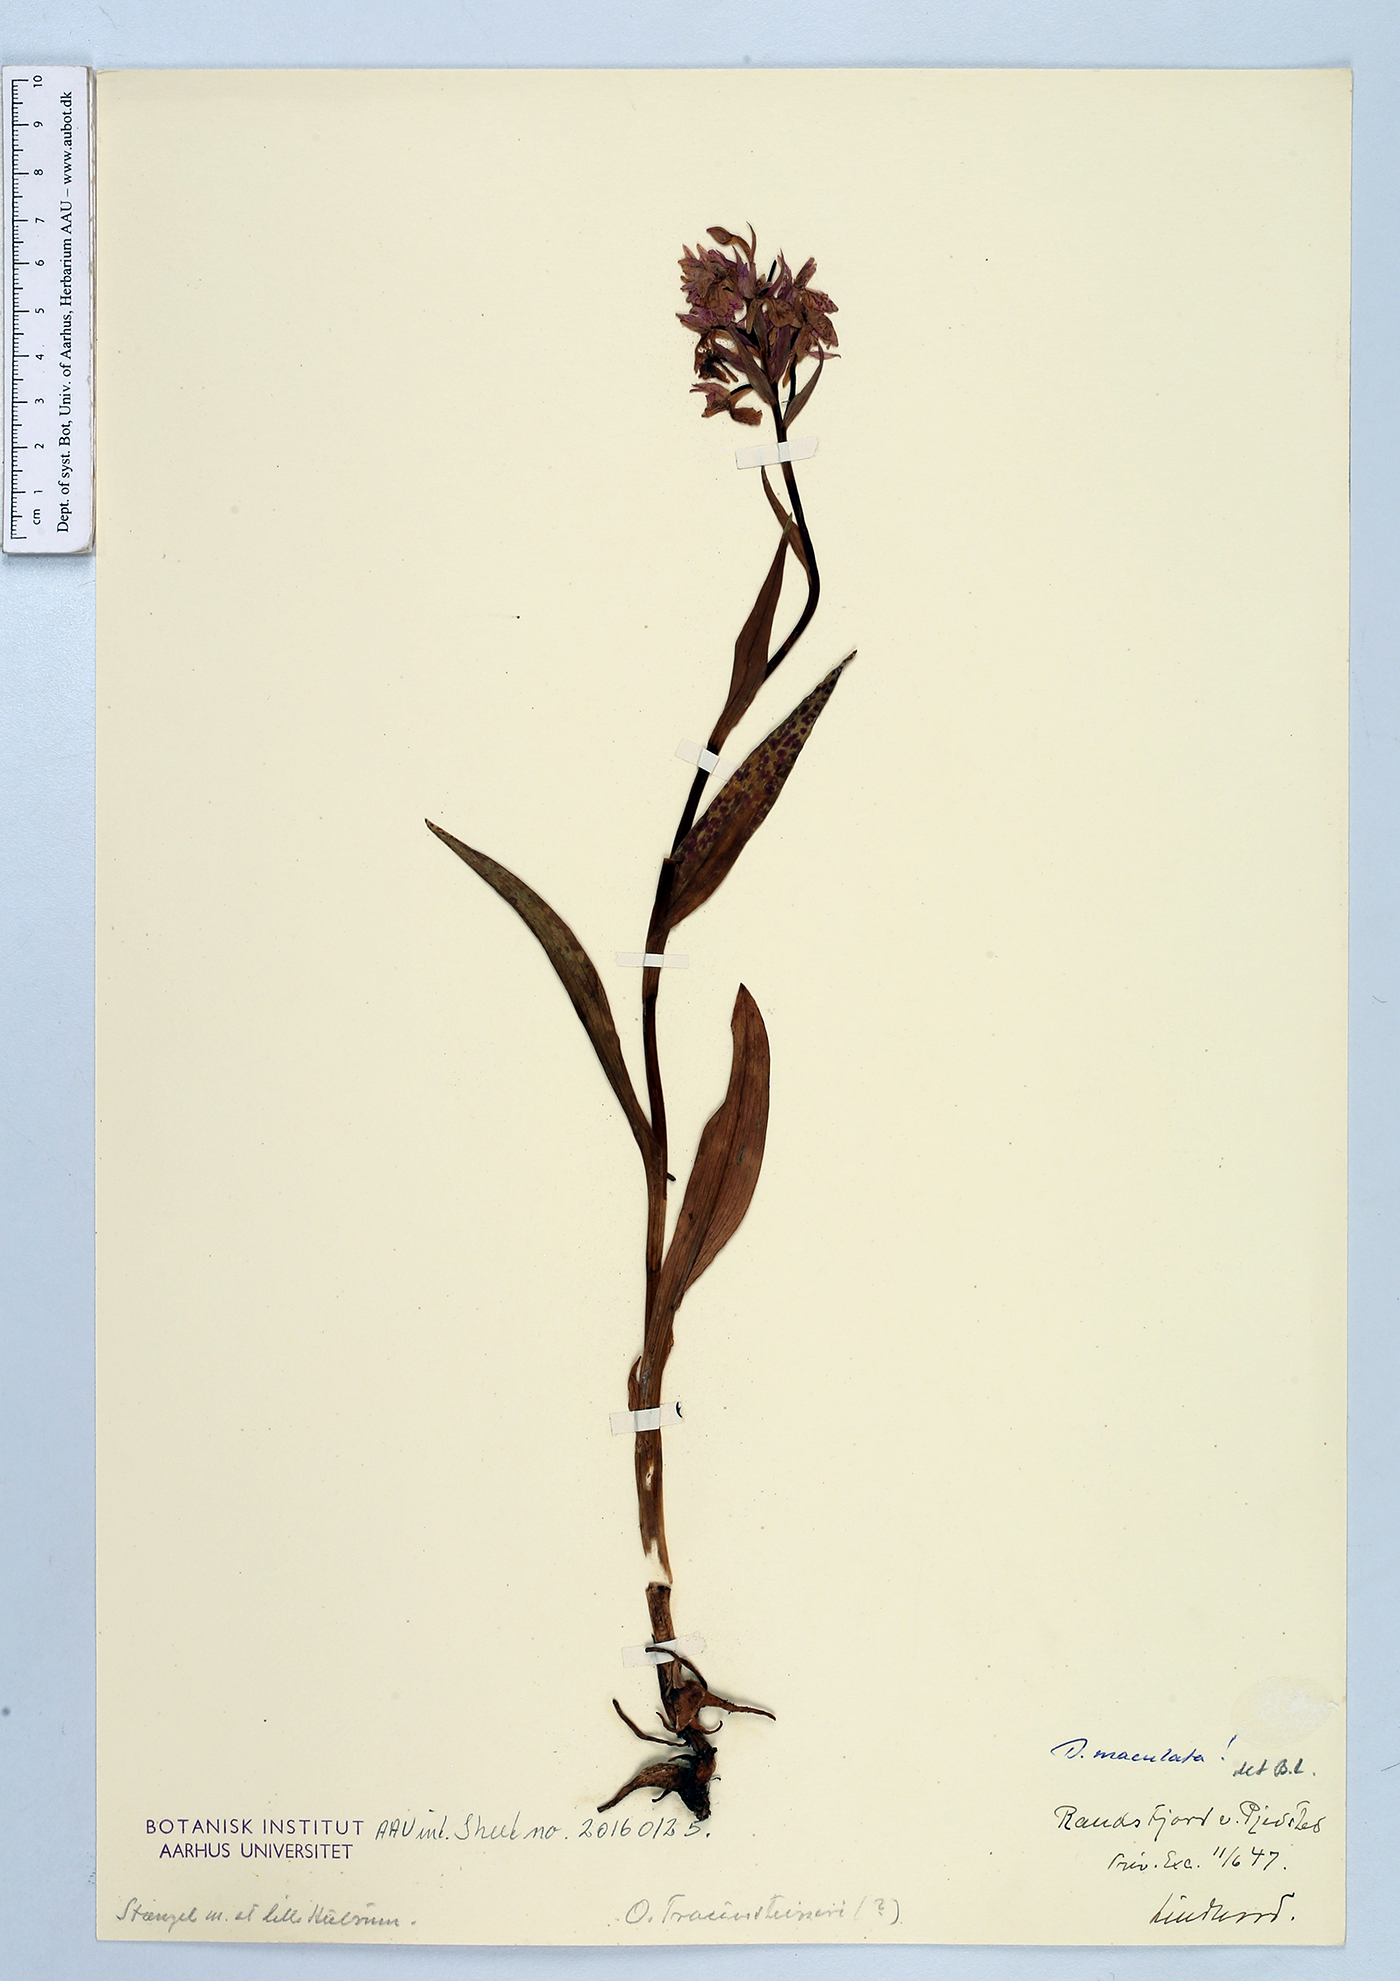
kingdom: Plantae
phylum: Tracheophyta
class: Liliopsida
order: Asparagales
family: Orchidaceae
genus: Dactylorhiza
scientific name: Dactylorhiza maculata
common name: Heath spotted-orchid
